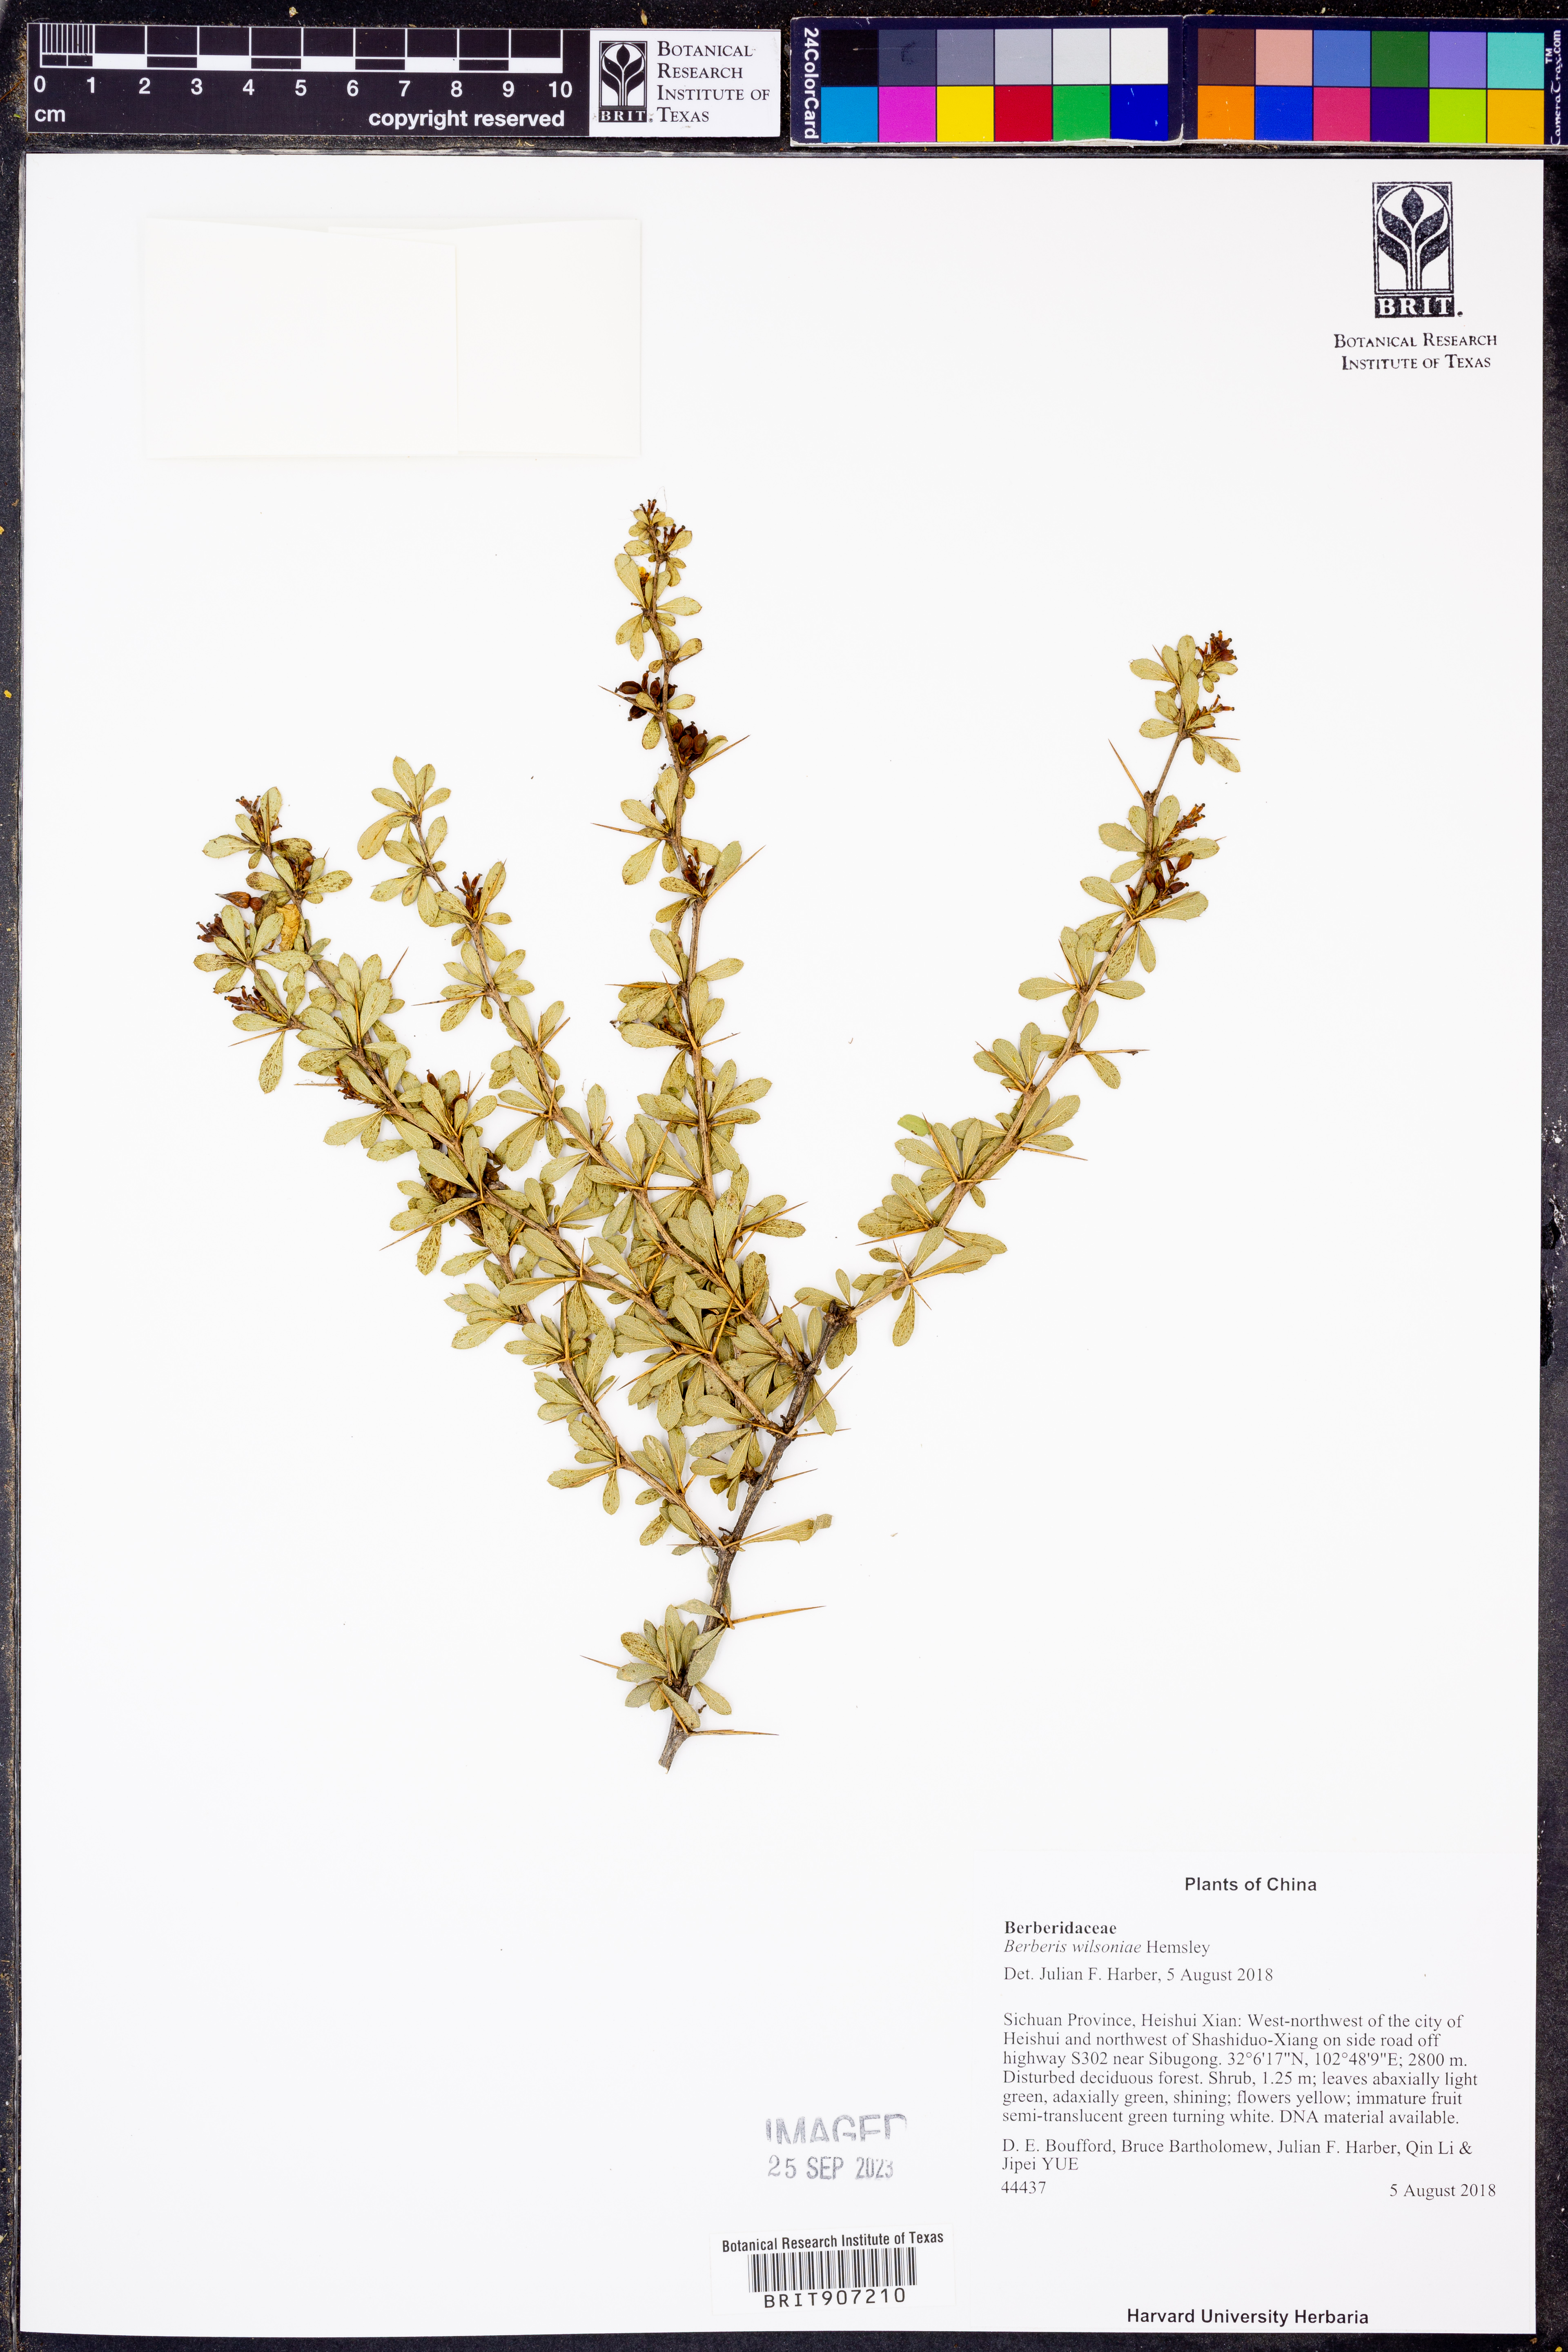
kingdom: Plantae
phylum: Tracheophyta
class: Magnoliopsida
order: Ranunculales
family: Berberidaceae
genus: Berberis
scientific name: Berberis wilsoniae
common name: Mrs wilson's barberry
